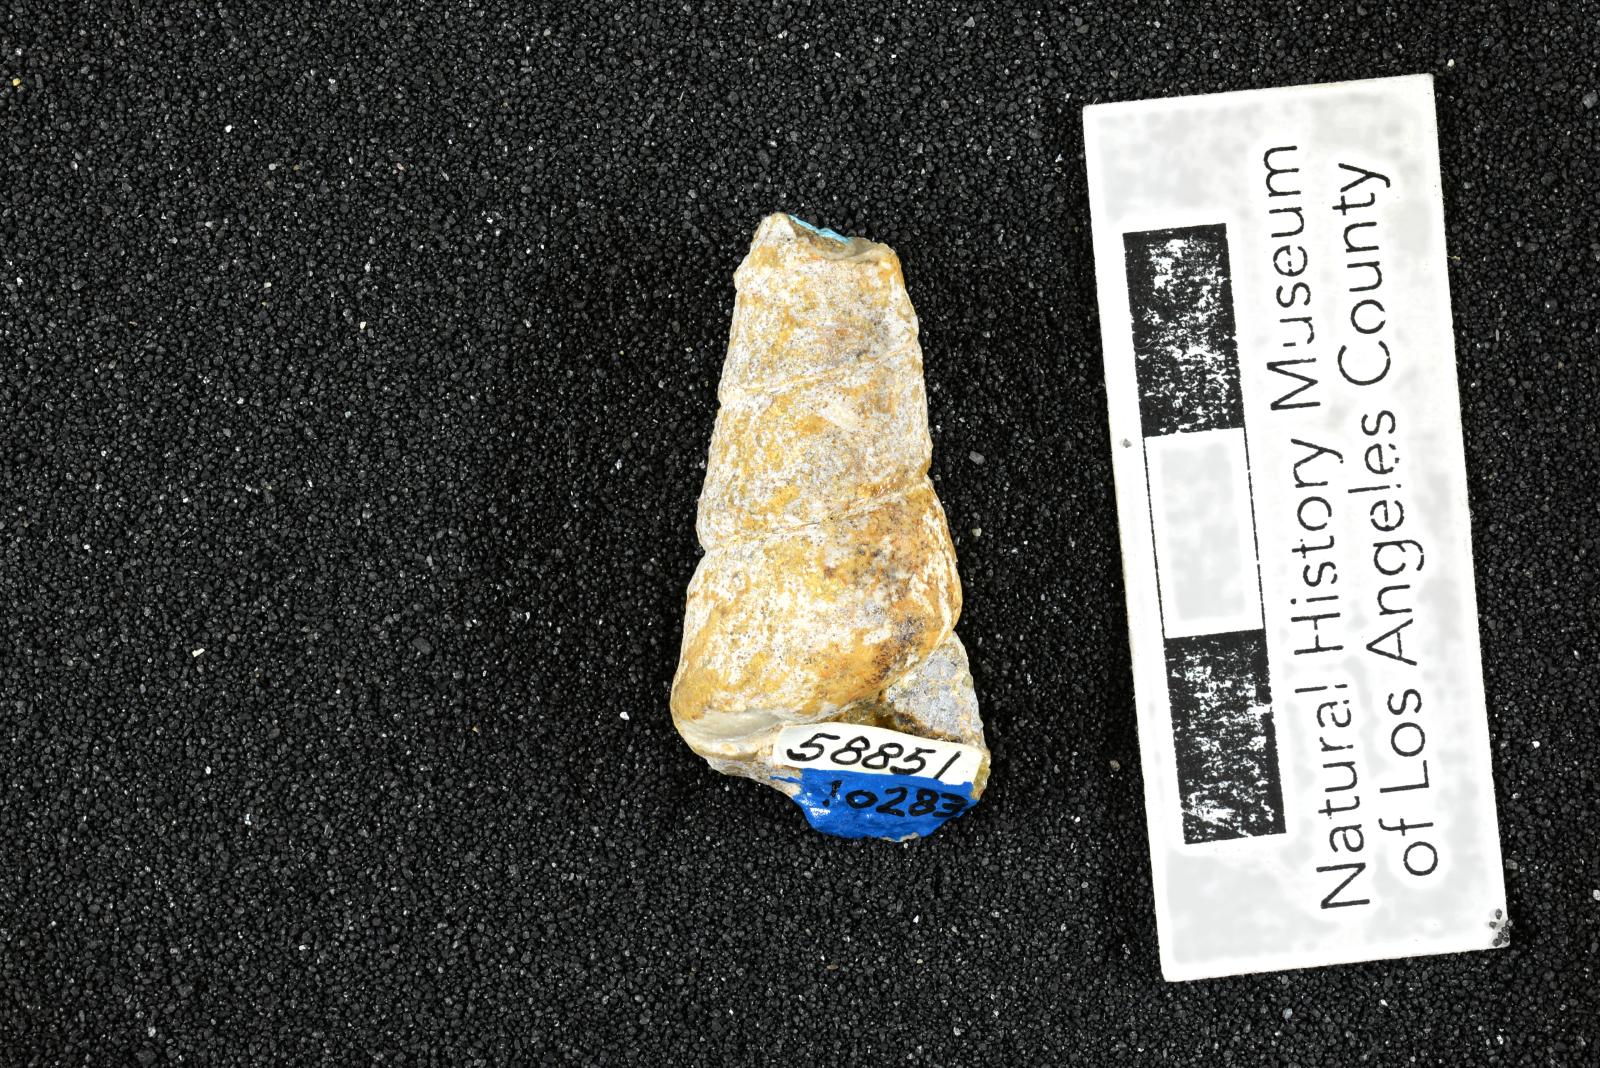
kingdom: Animalia
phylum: Mollusca
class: Gastropoda
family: Turritellidae
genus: Turritella
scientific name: Turritella peninsularis
